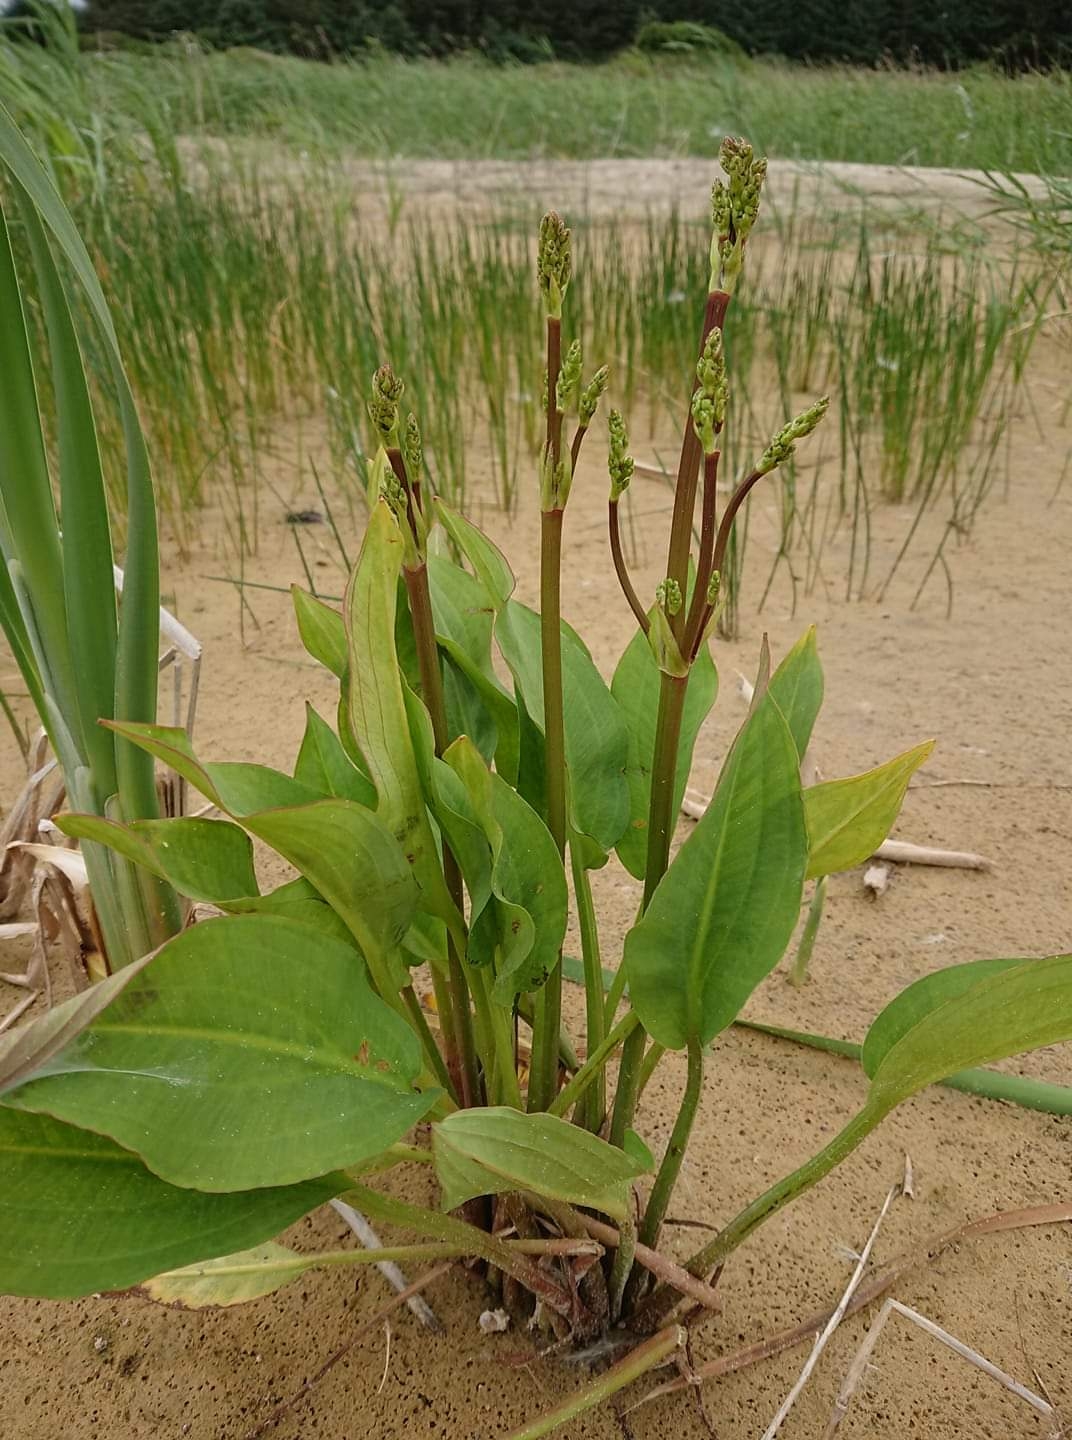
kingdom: Plantae
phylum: Tracheophyta
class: Liliopsida
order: Alismatales
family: Alismataceae
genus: Alisma
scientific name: Alisma plantago-aquatica
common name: Vejbred-skeblad
